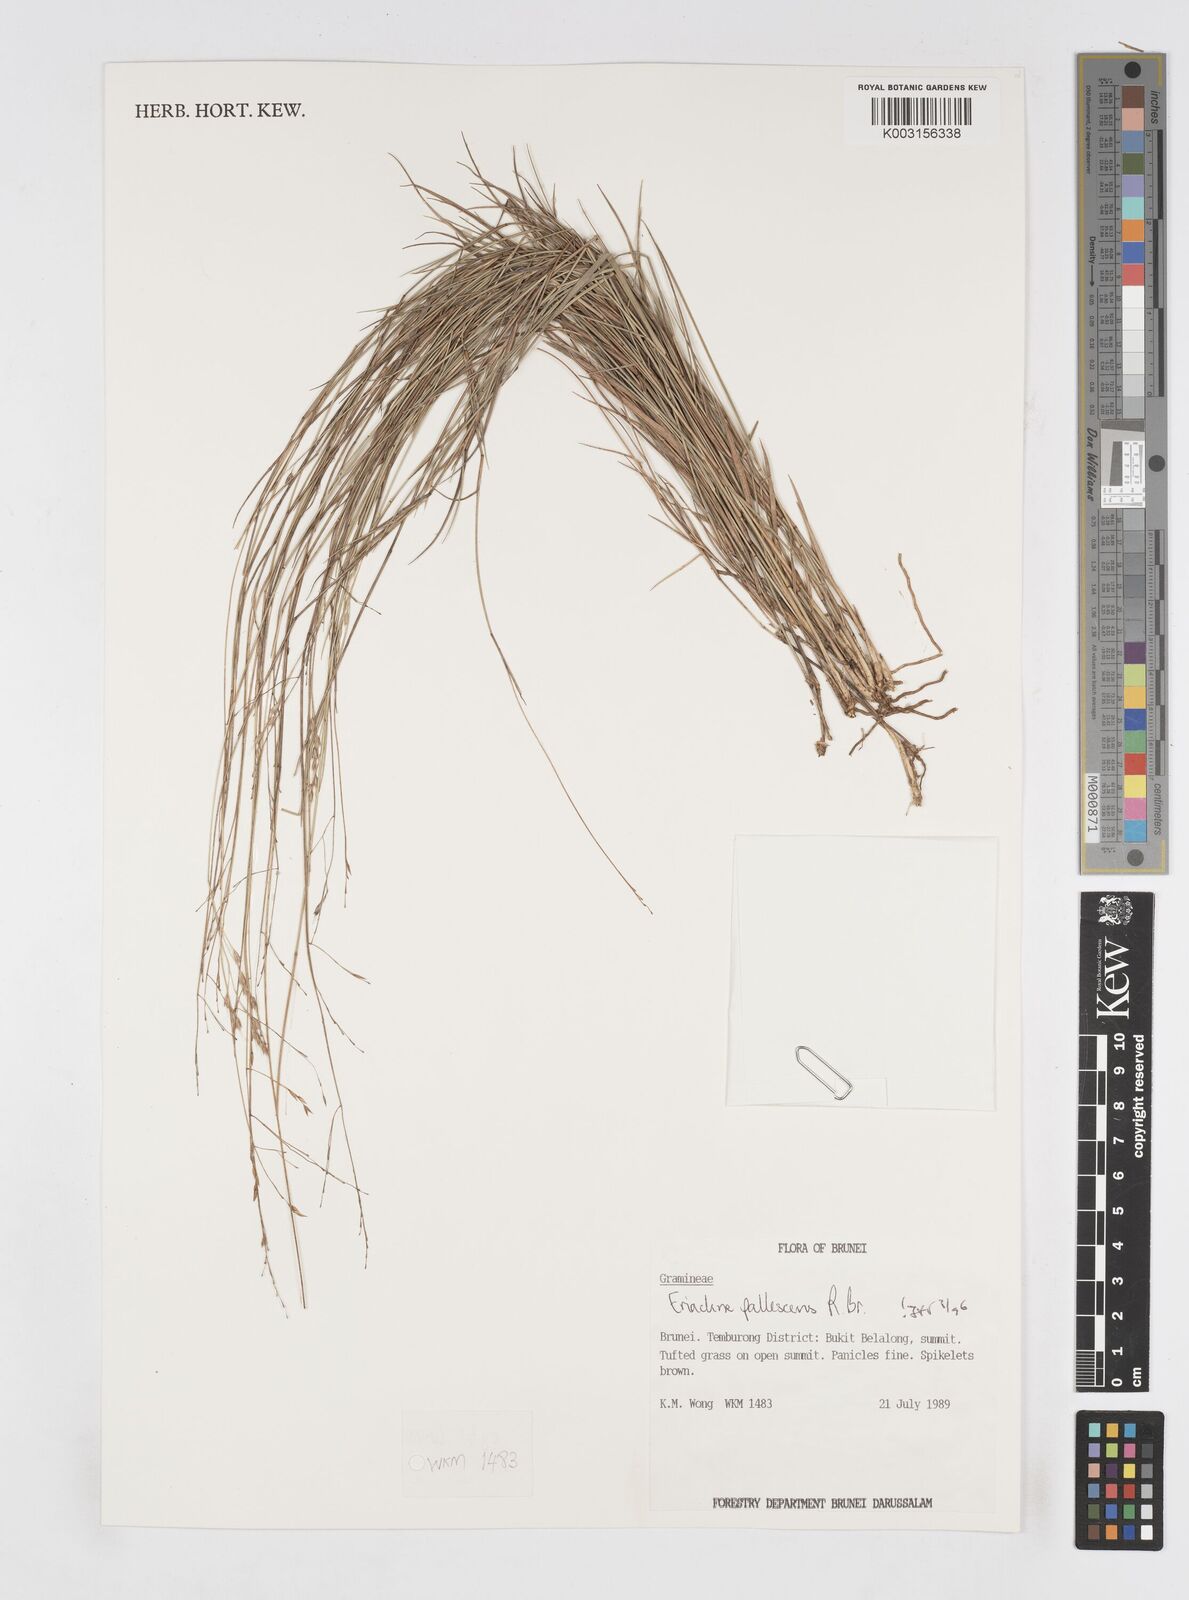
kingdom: Plantae
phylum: Tracheophyta
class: Liliopsida
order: Poales
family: Poaceae
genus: Eriachne
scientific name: Eriachne pallescens
